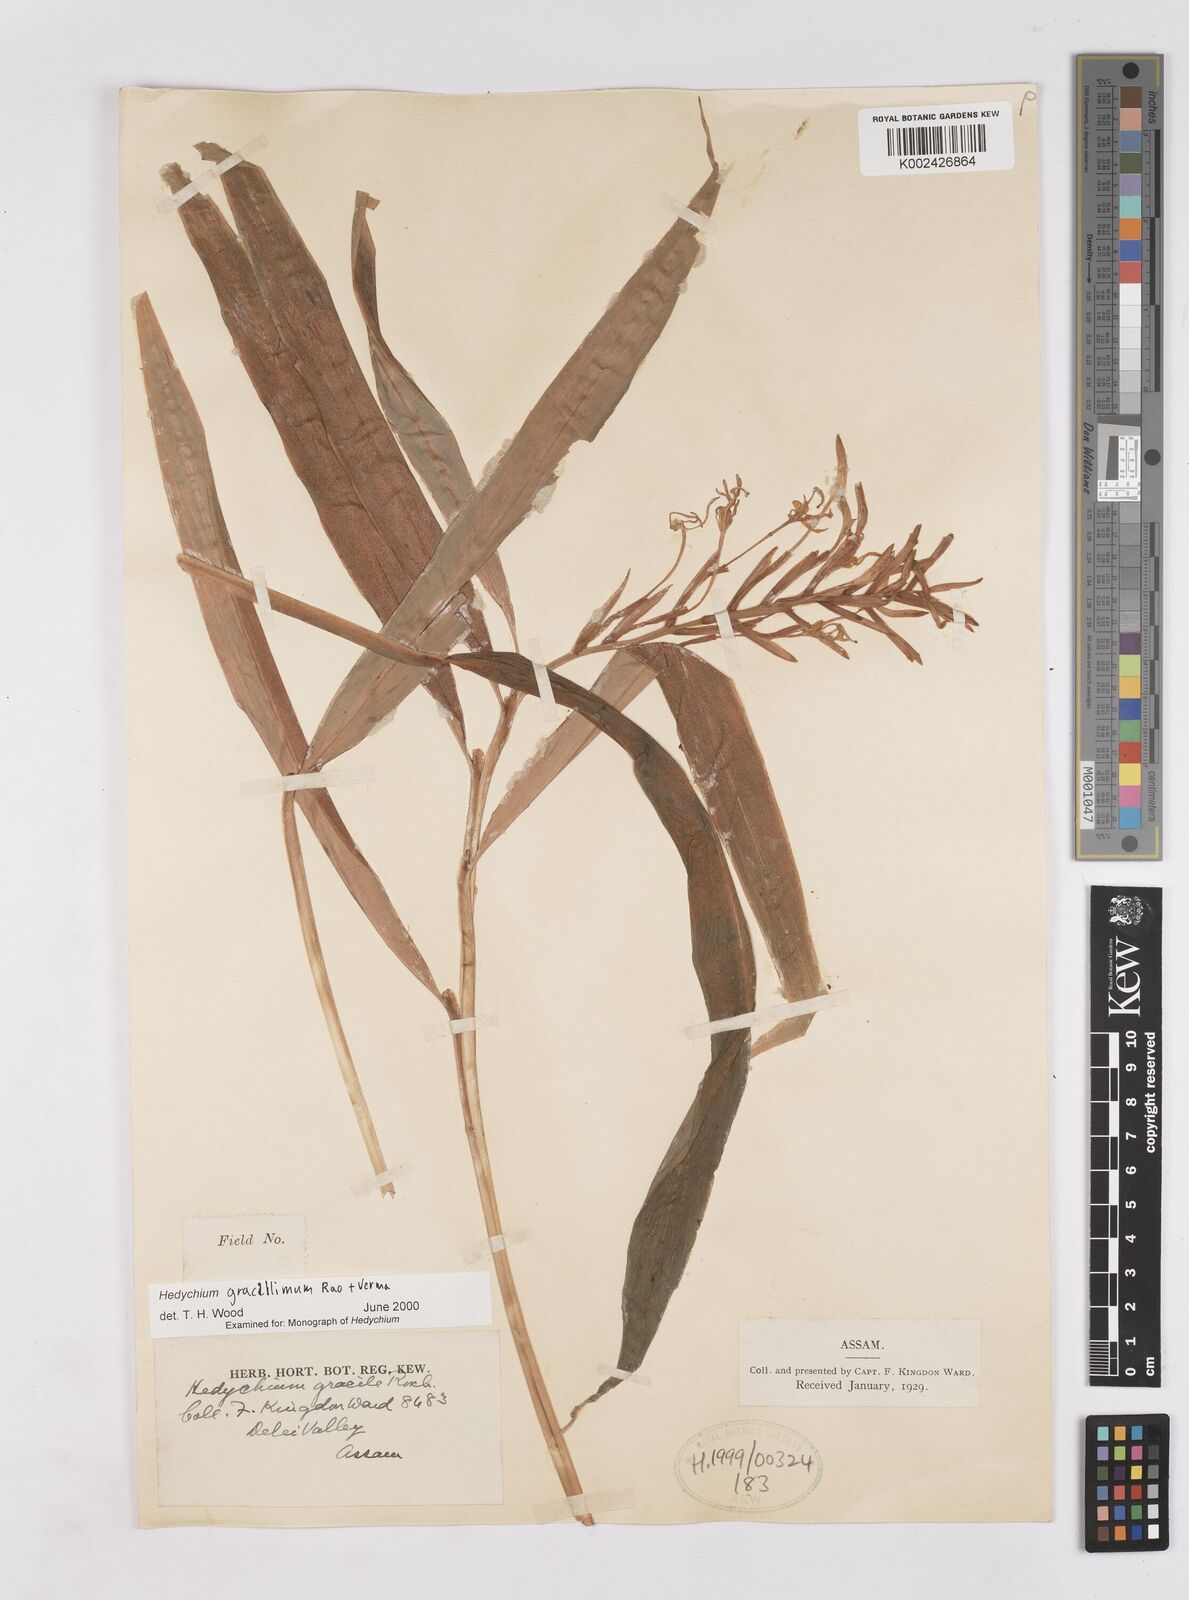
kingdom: Plantae
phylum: Tracheophyta
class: Liliopsida
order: Zingiberales
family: Zingiberaceae
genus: Hedychium
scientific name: Hedychium gracillimum
